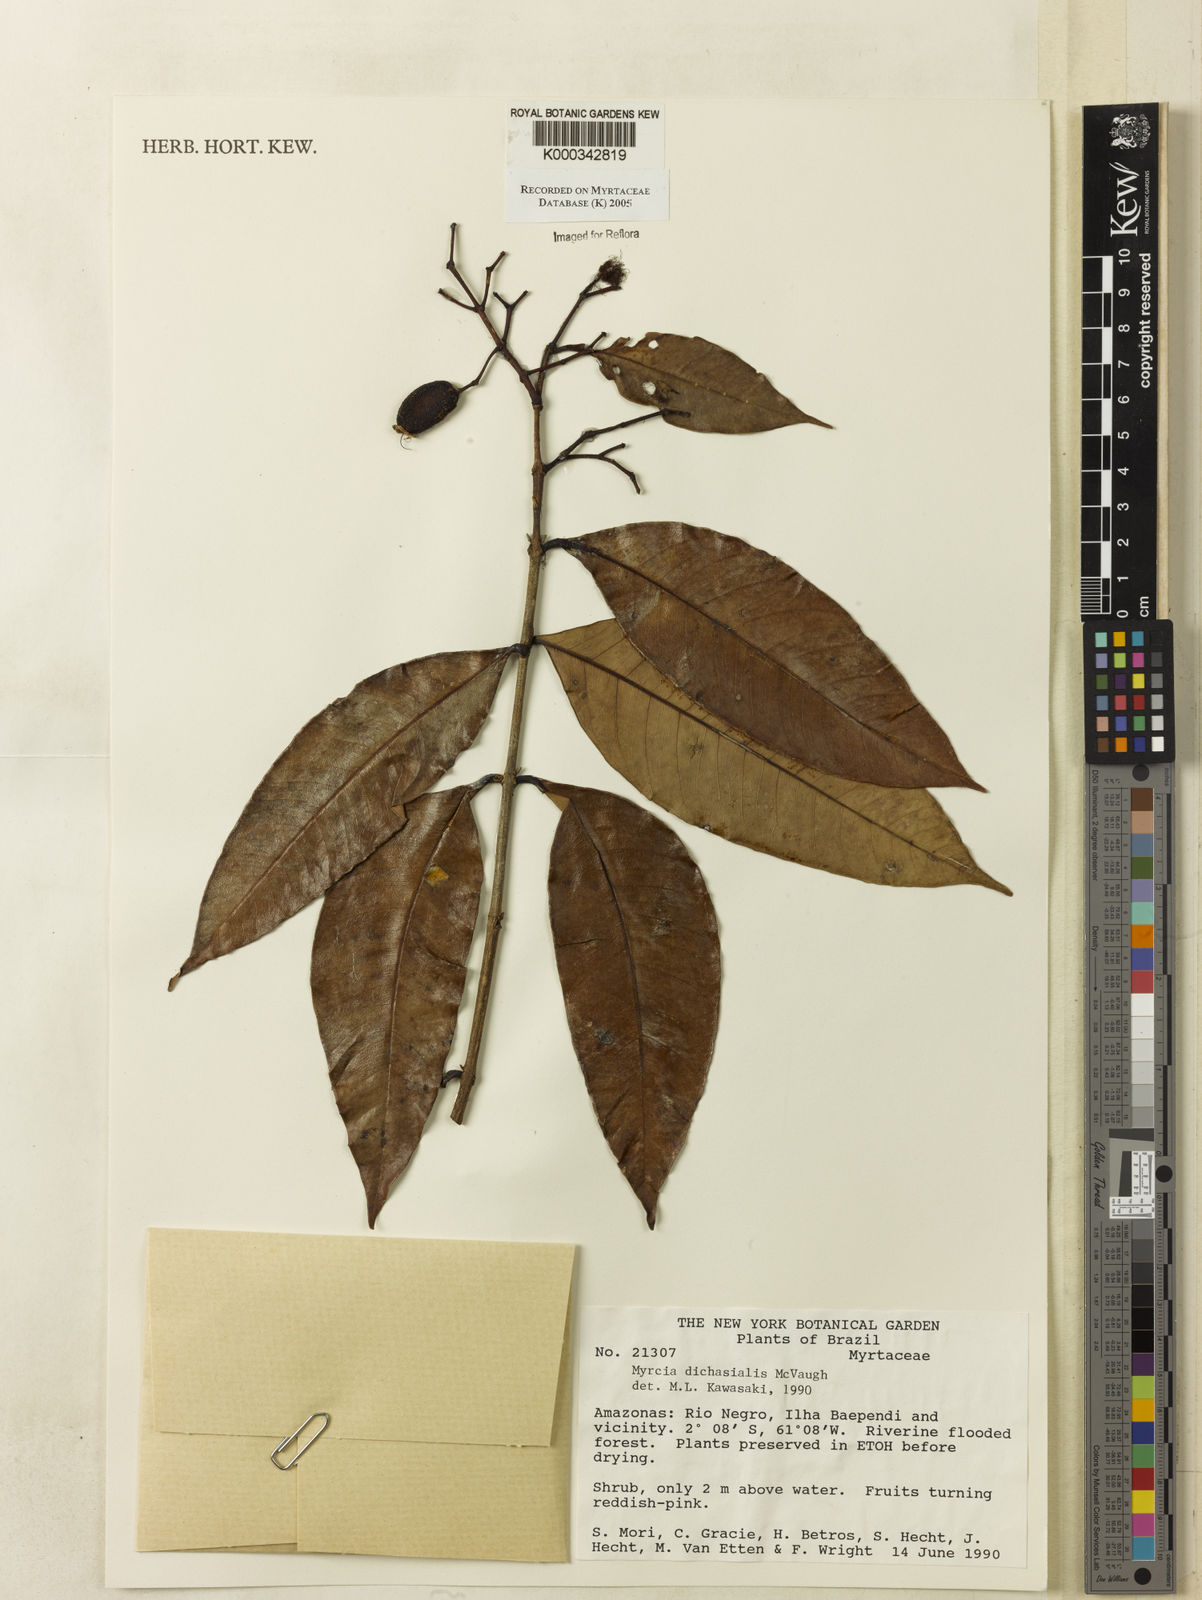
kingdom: Plantae
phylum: Tracheophyta
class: Magnoliopsida
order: Myrtales
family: Myrtaceae
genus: Myrcia
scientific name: Myrcia dichasialis
